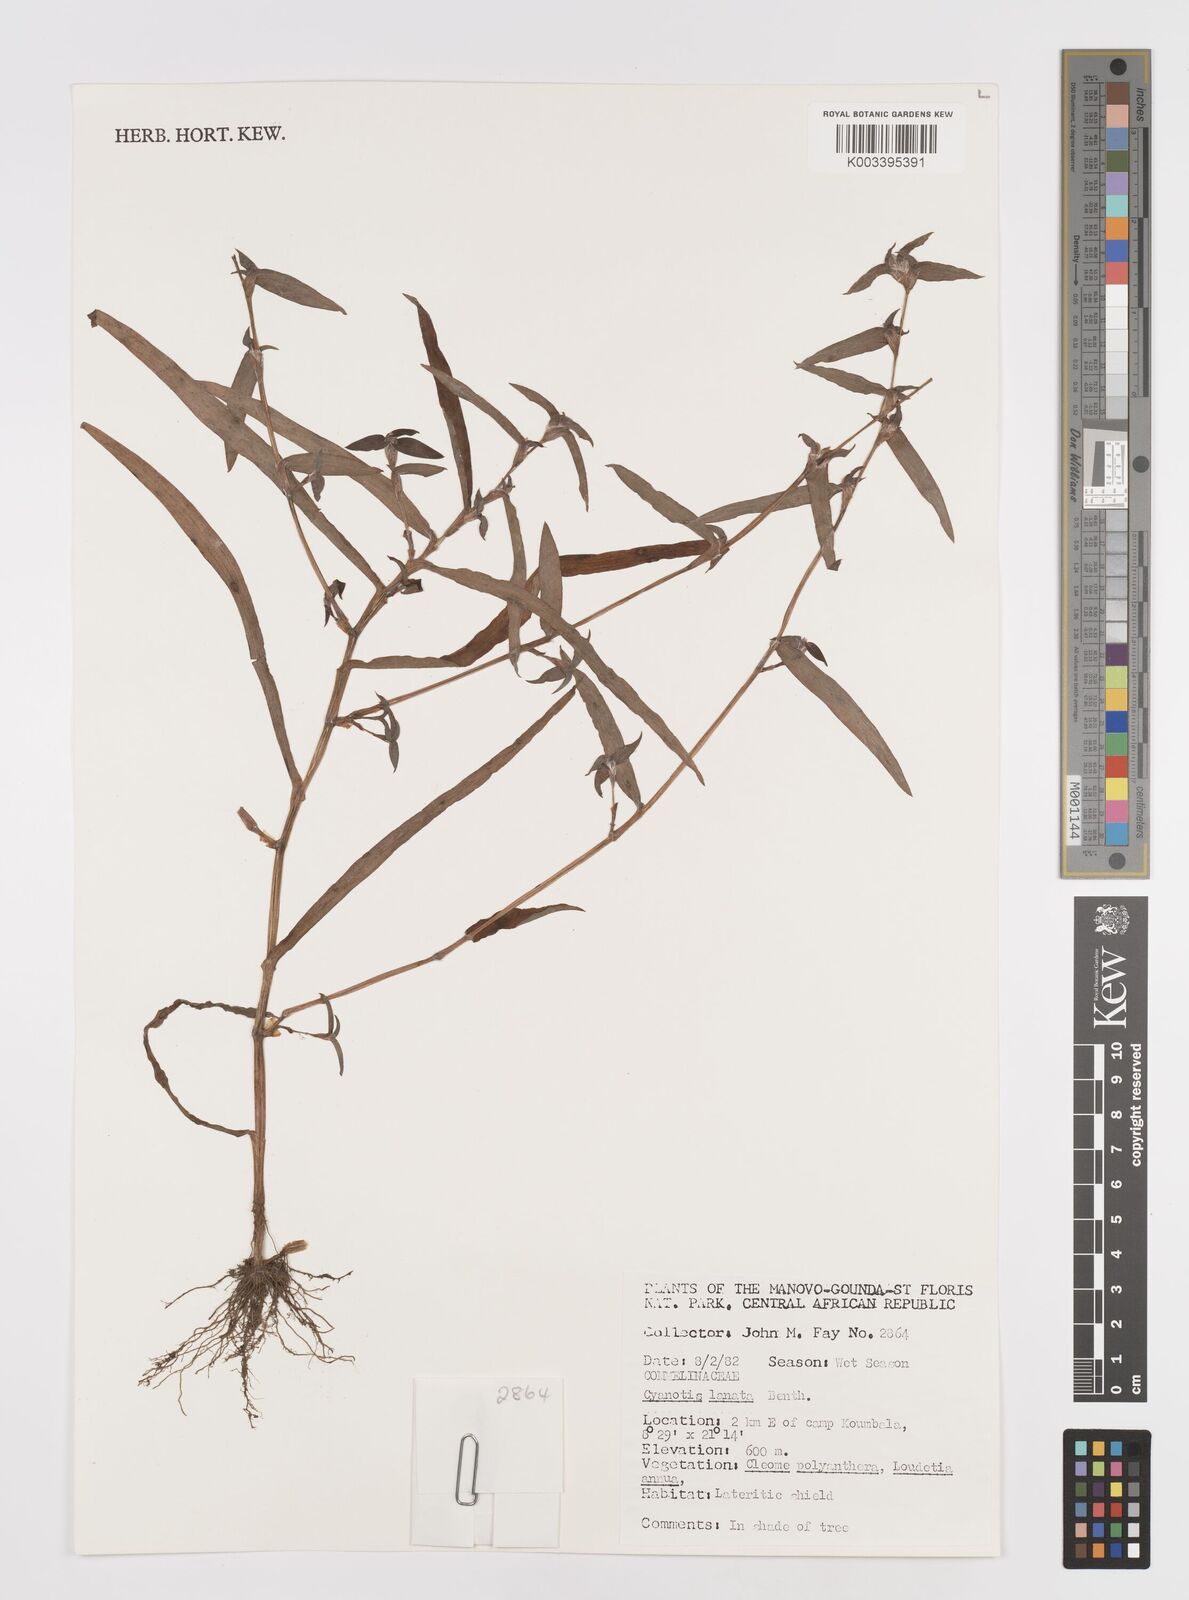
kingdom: Plantae
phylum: Tracheophyta
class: Liliopsida
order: Commelinales
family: Commelinaceae
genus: Cyanotis
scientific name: Cyanotis lanata
